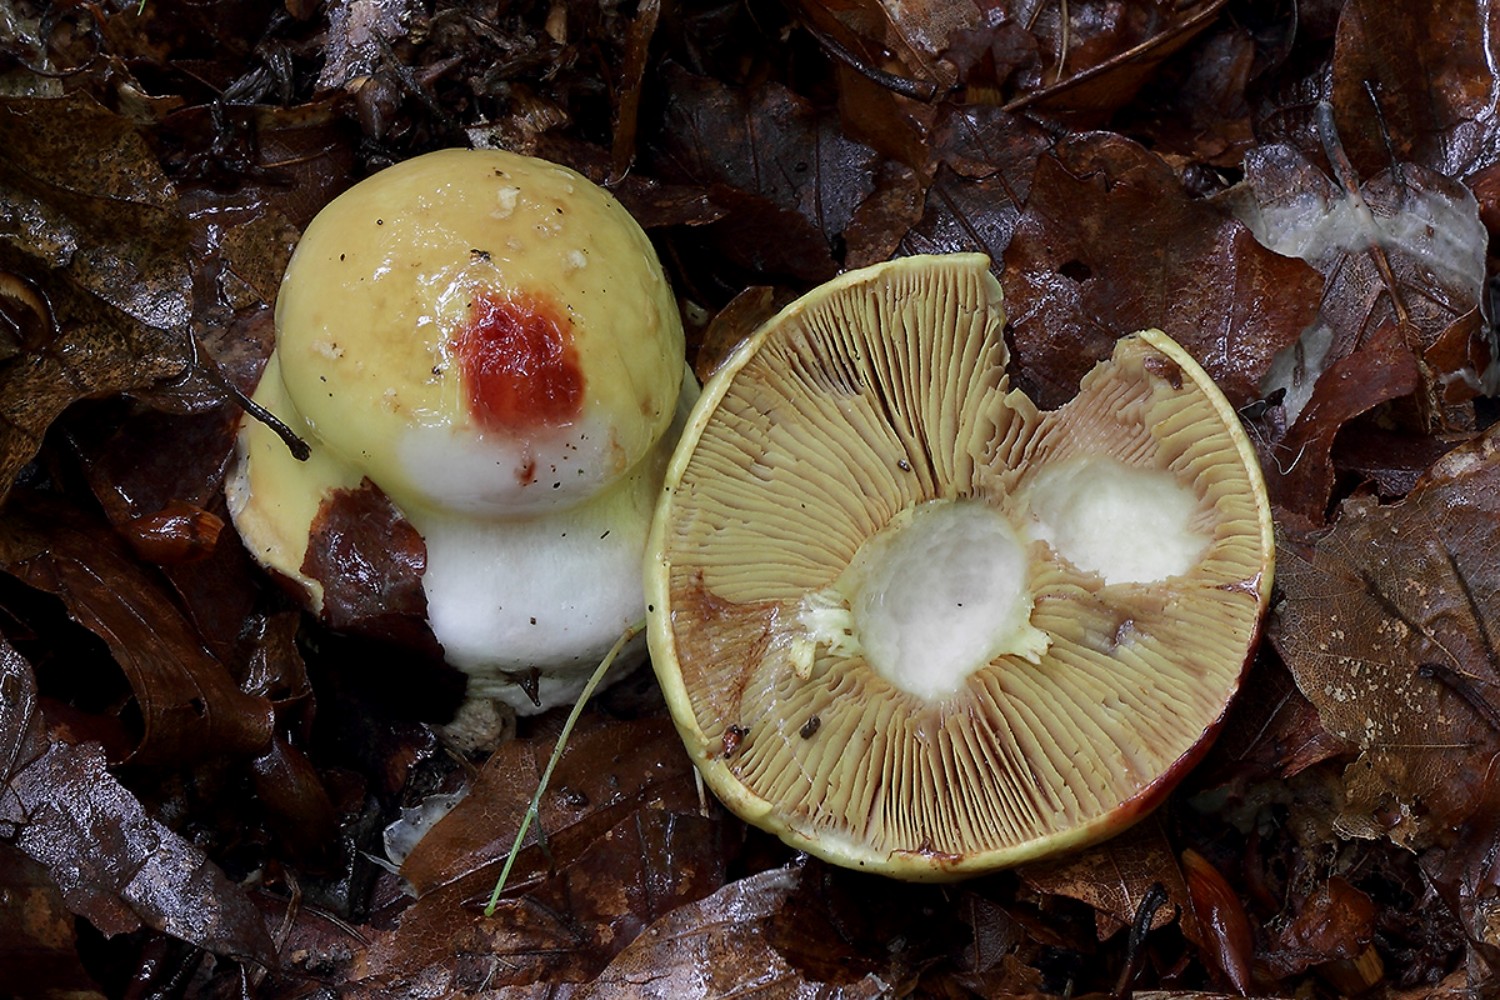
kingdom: Fungi
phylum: Basidiomycota
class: Agaricomycetes
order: Agaricales
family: Cortinariaceae
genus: Calonarius
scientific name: Calonarius elegantissimus
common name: orangegylden slørhat
